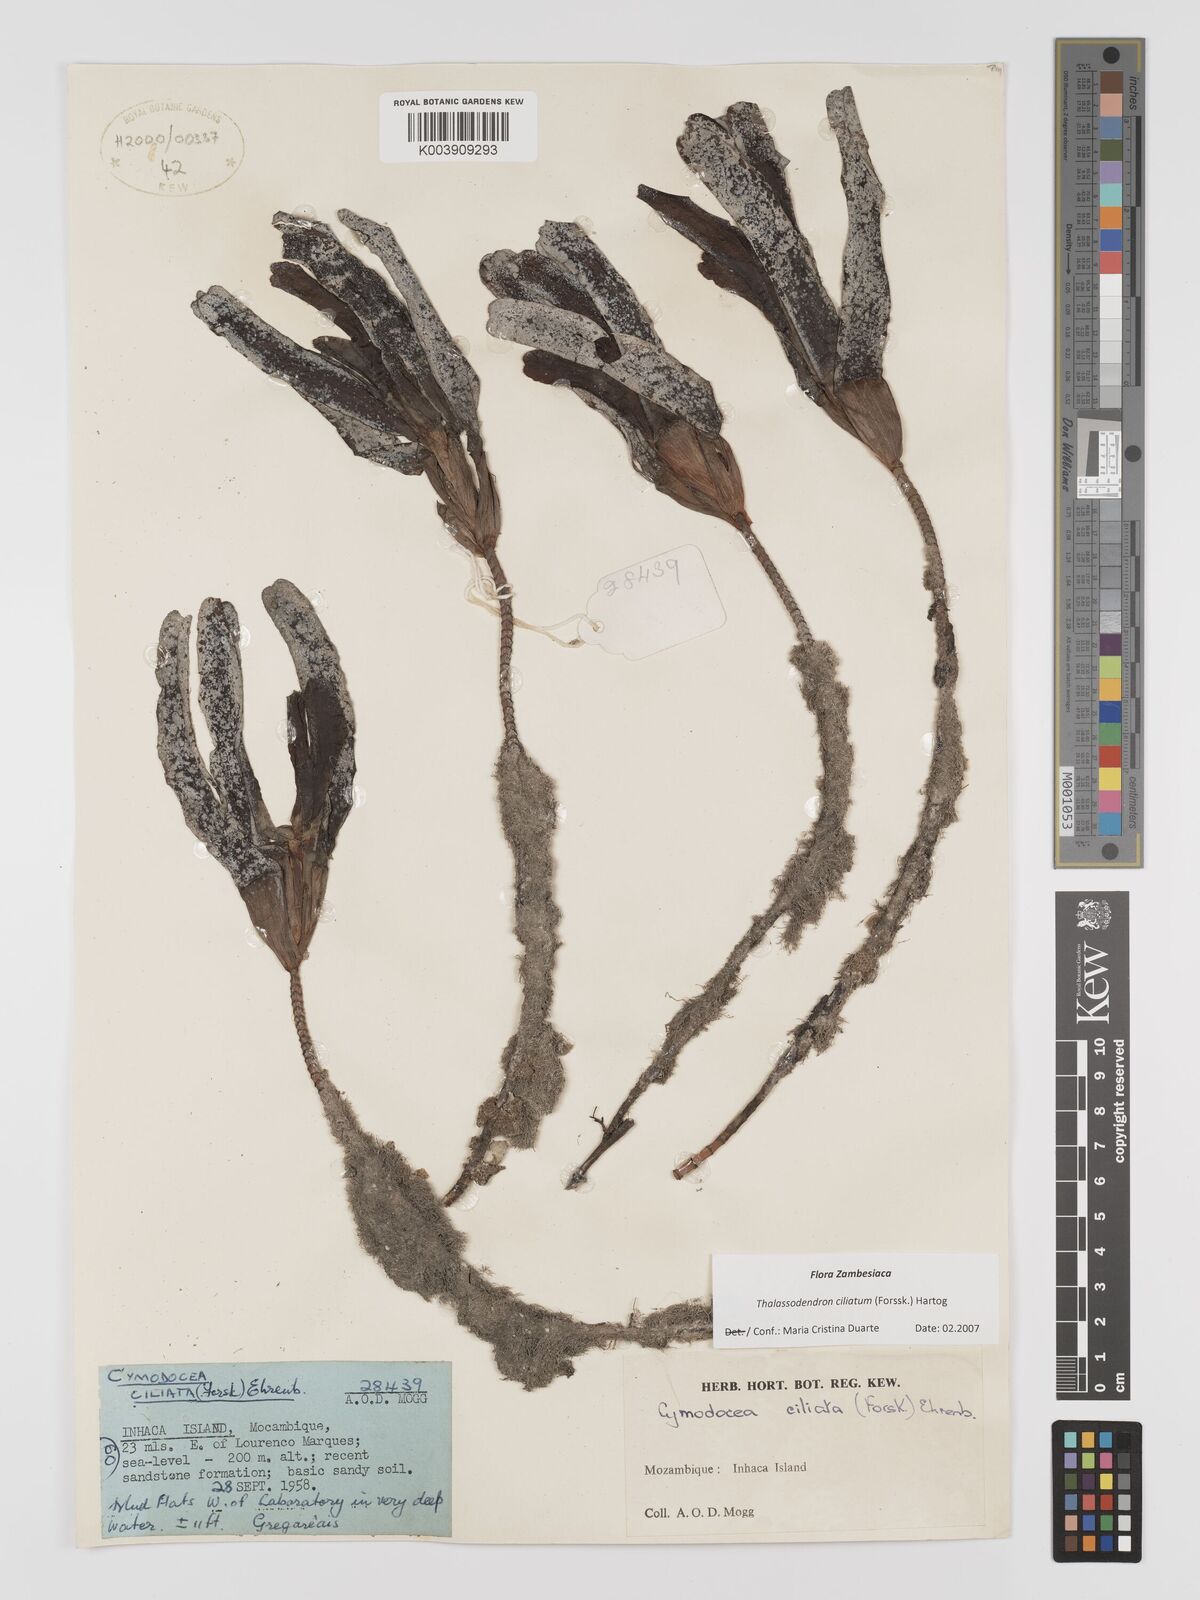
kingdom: Plantae
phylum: Tracheophyta
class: Liliopsida
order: Alismatales
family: Cymodoceaceae
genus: Thalassodendron
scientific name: Thalassodendron ciliatum
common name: Species code: tc
